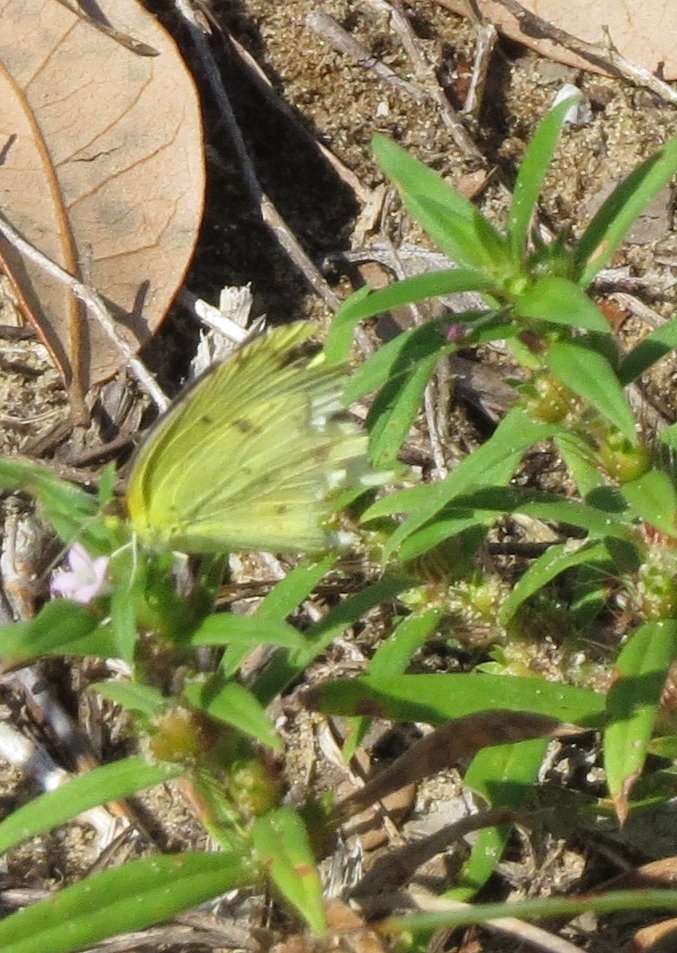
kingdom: Animalia
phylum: Arthropoda
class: Insecta
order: Lepidoptera
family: Pieridae
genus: Pyrisitia
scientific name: Pyrisitia lisa
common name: Little Yellow
